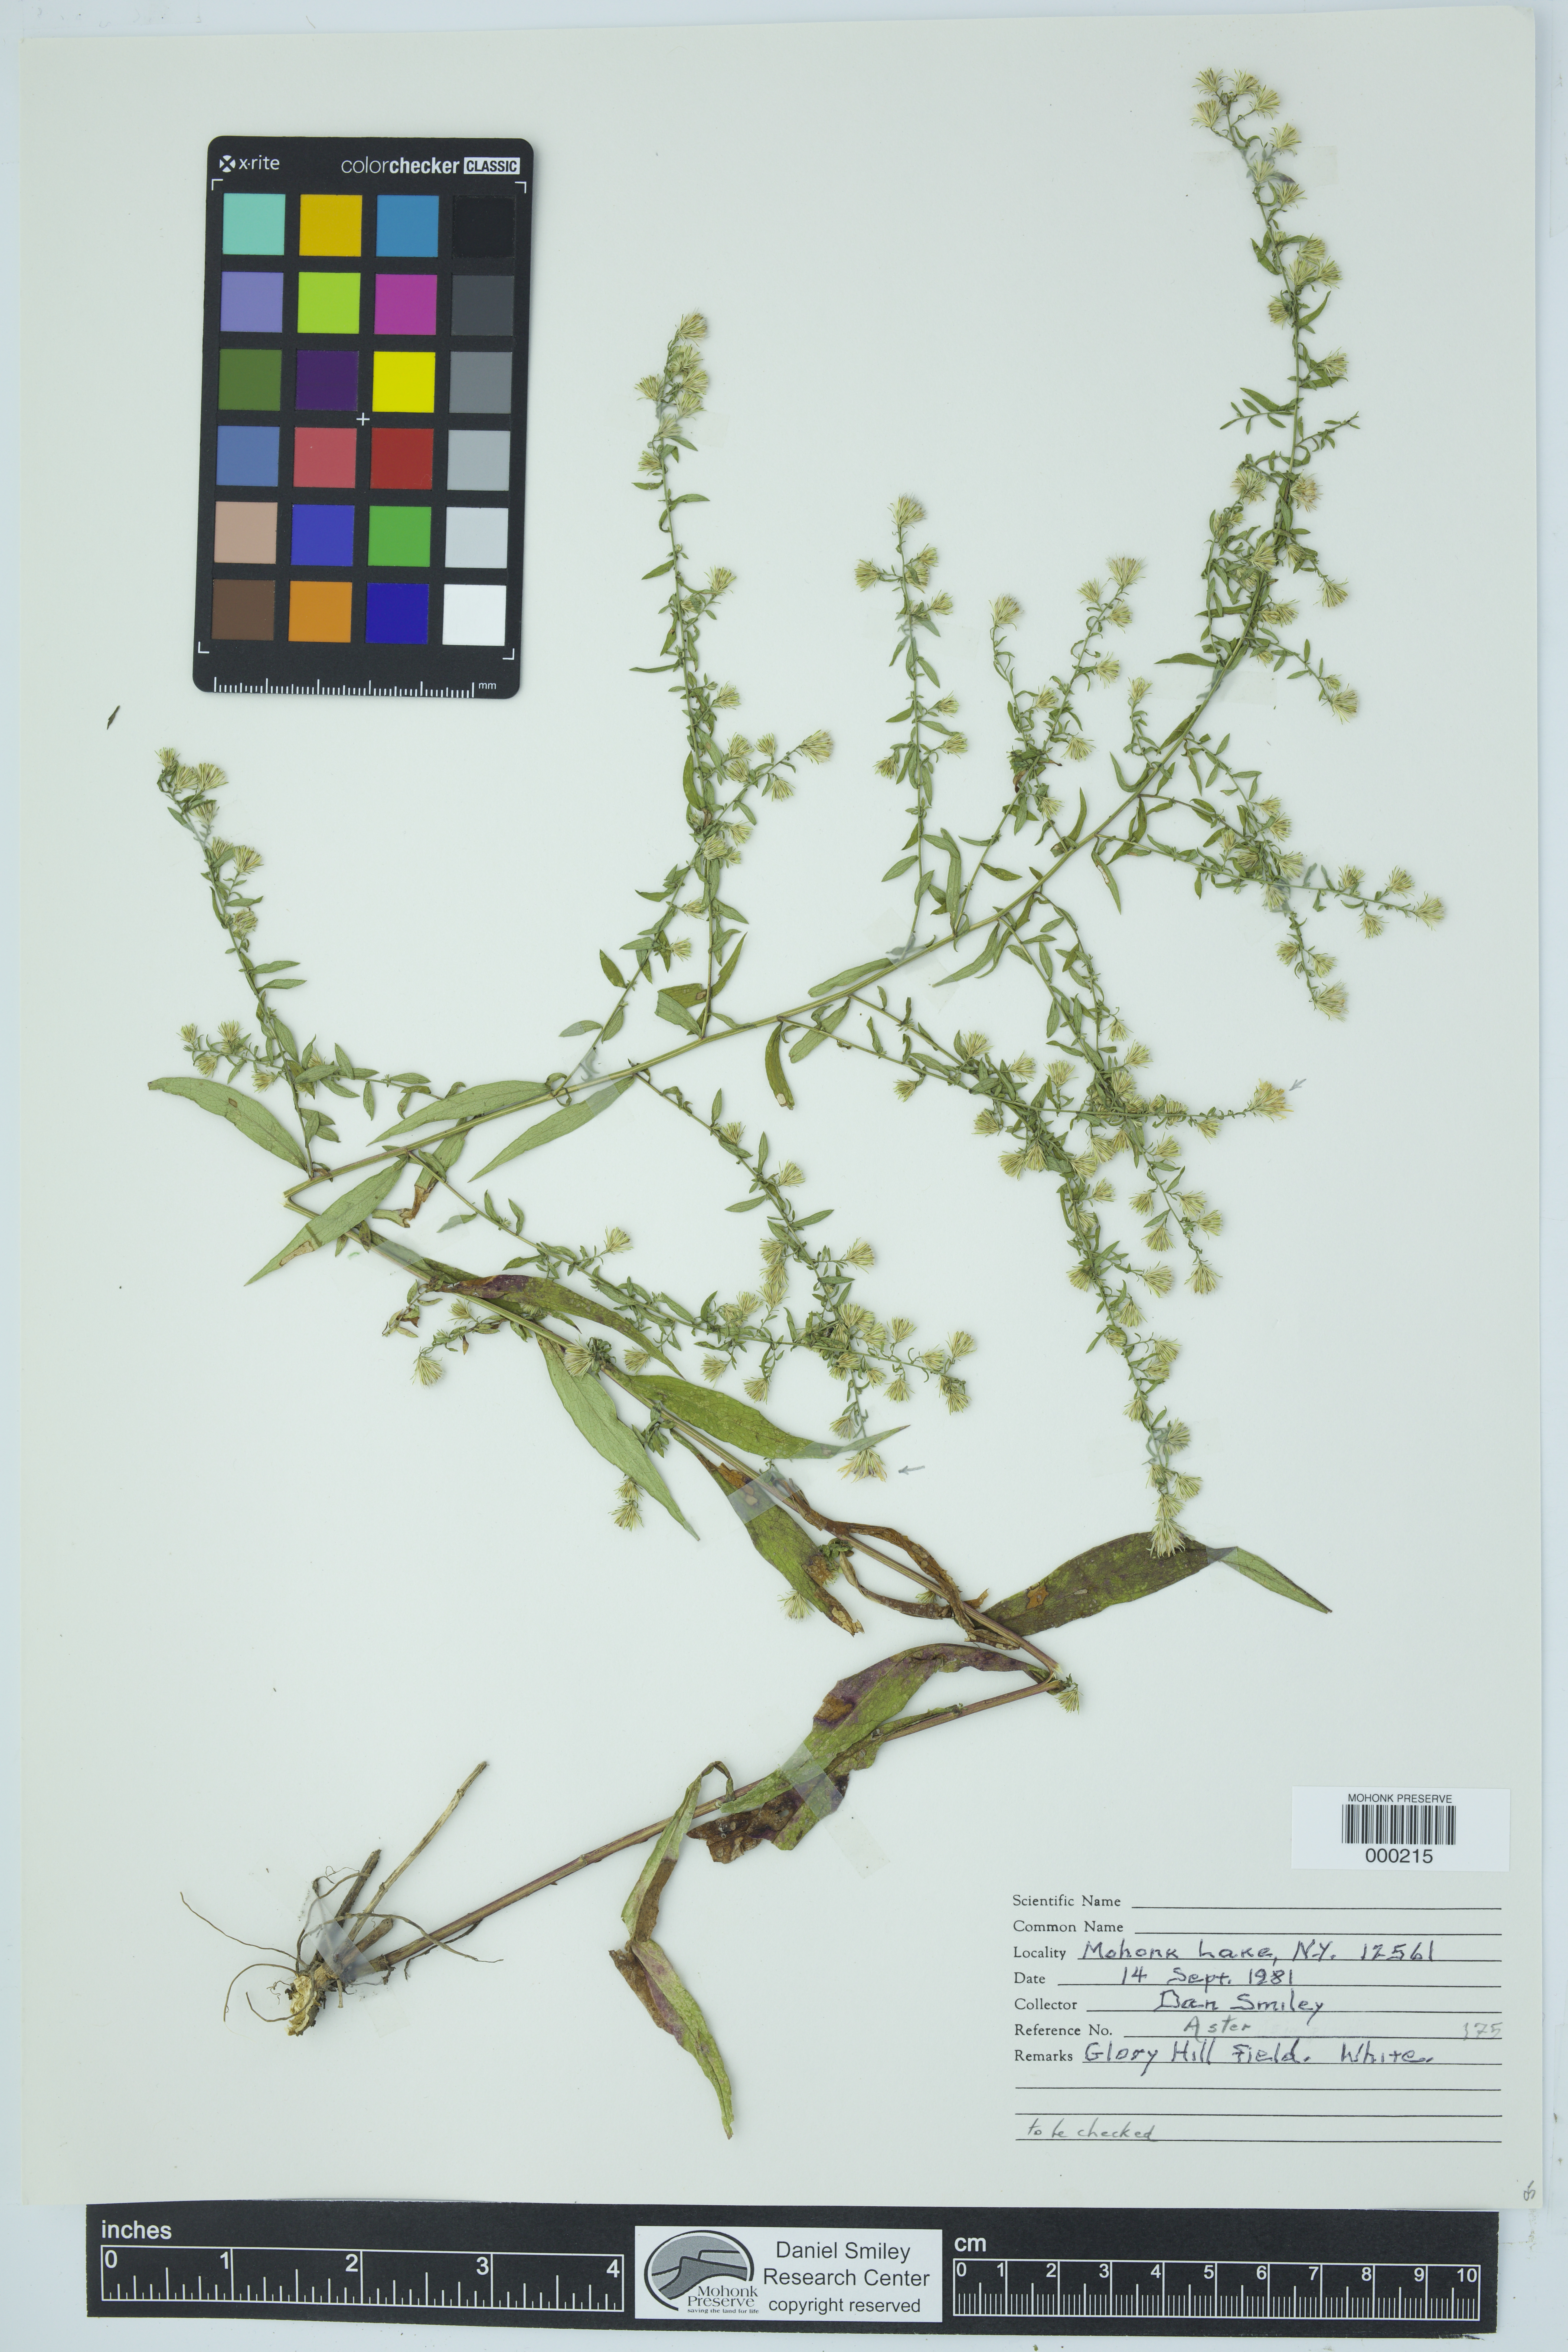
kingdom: Plantae
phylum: Tracheophyta
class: Magnoliopsida
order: Asterales
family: Asteraceae
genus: Aster
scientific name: Aster
